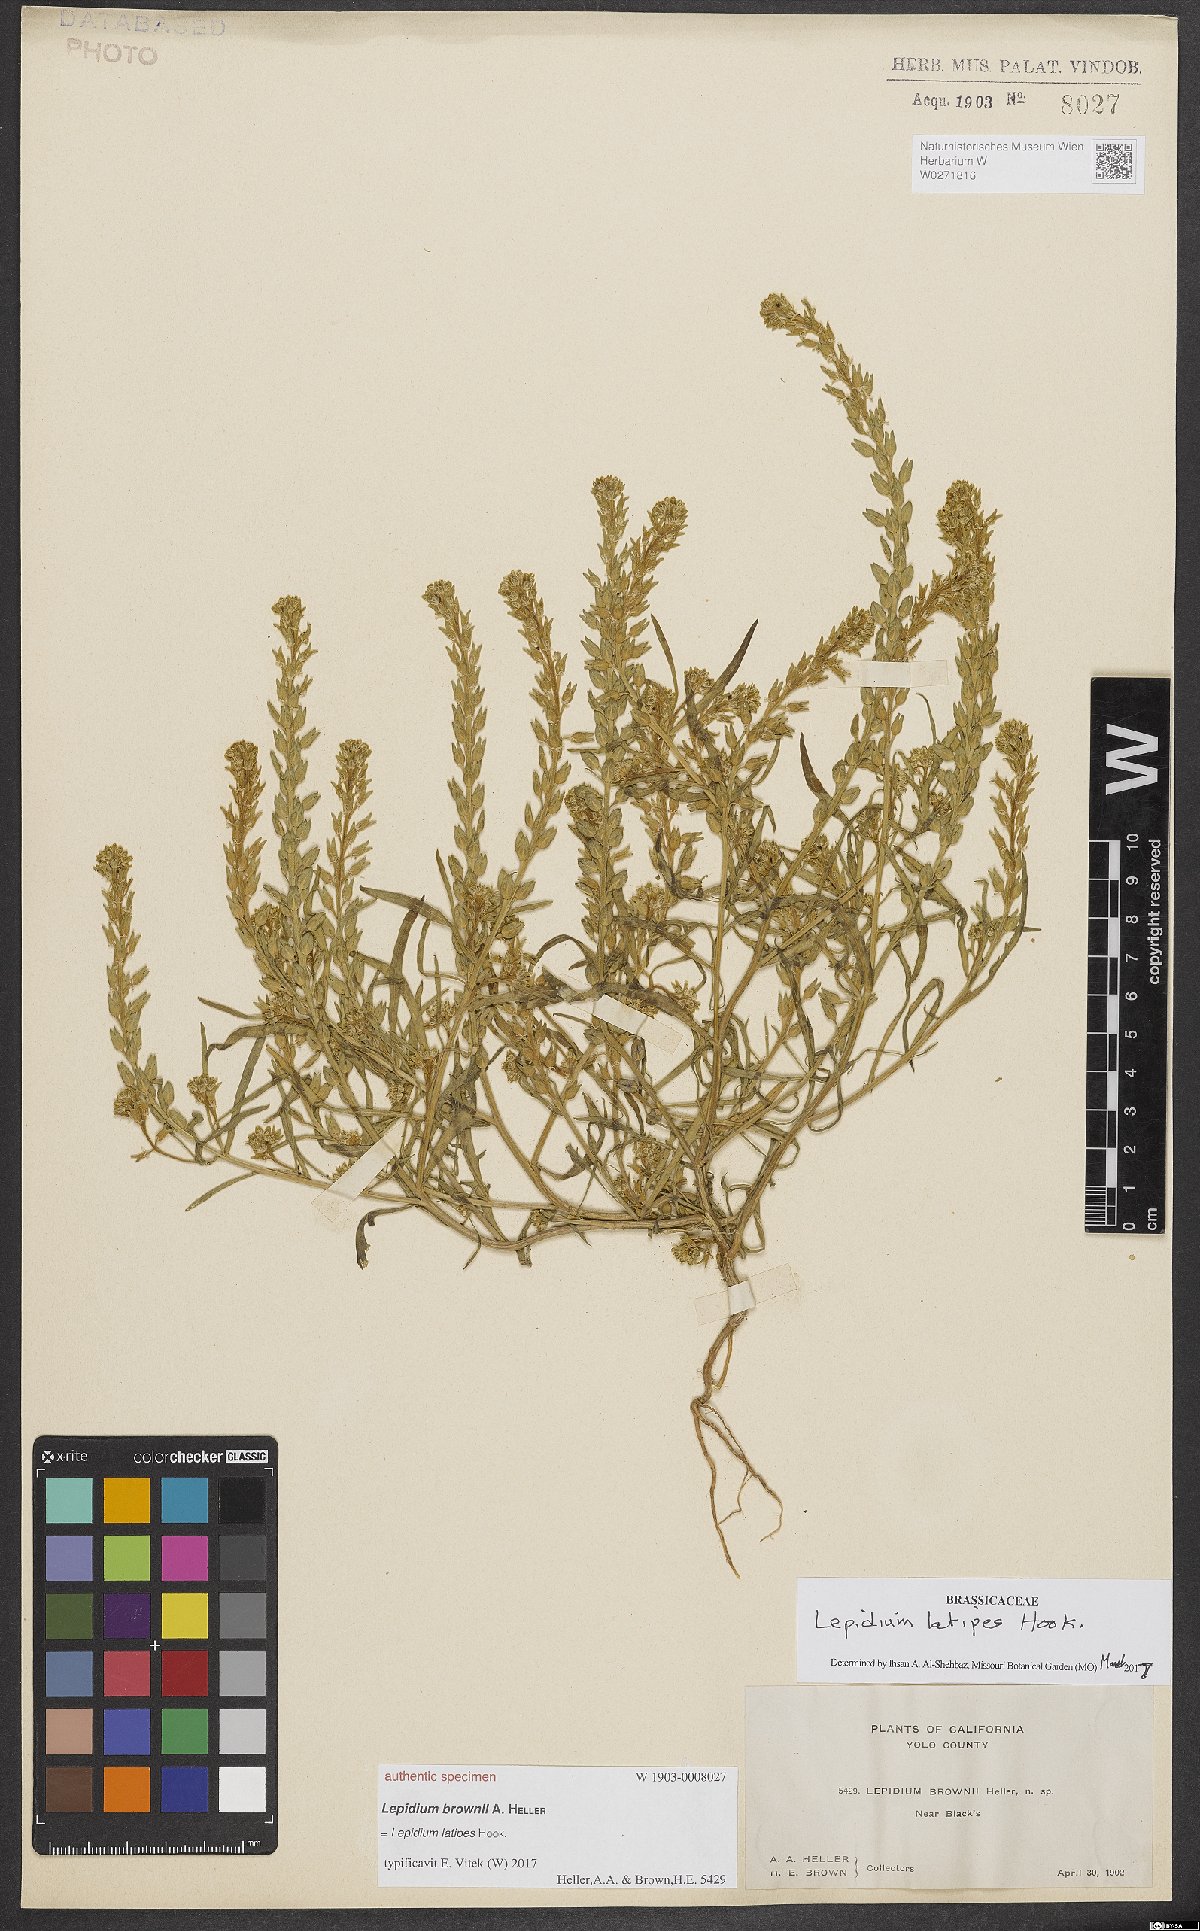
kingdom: Plantae
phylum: Tracheophyta
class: Magnoliopsida
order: Brassicales
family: Brassicaceae
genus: Lepidium
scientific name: Lepidium brownii
